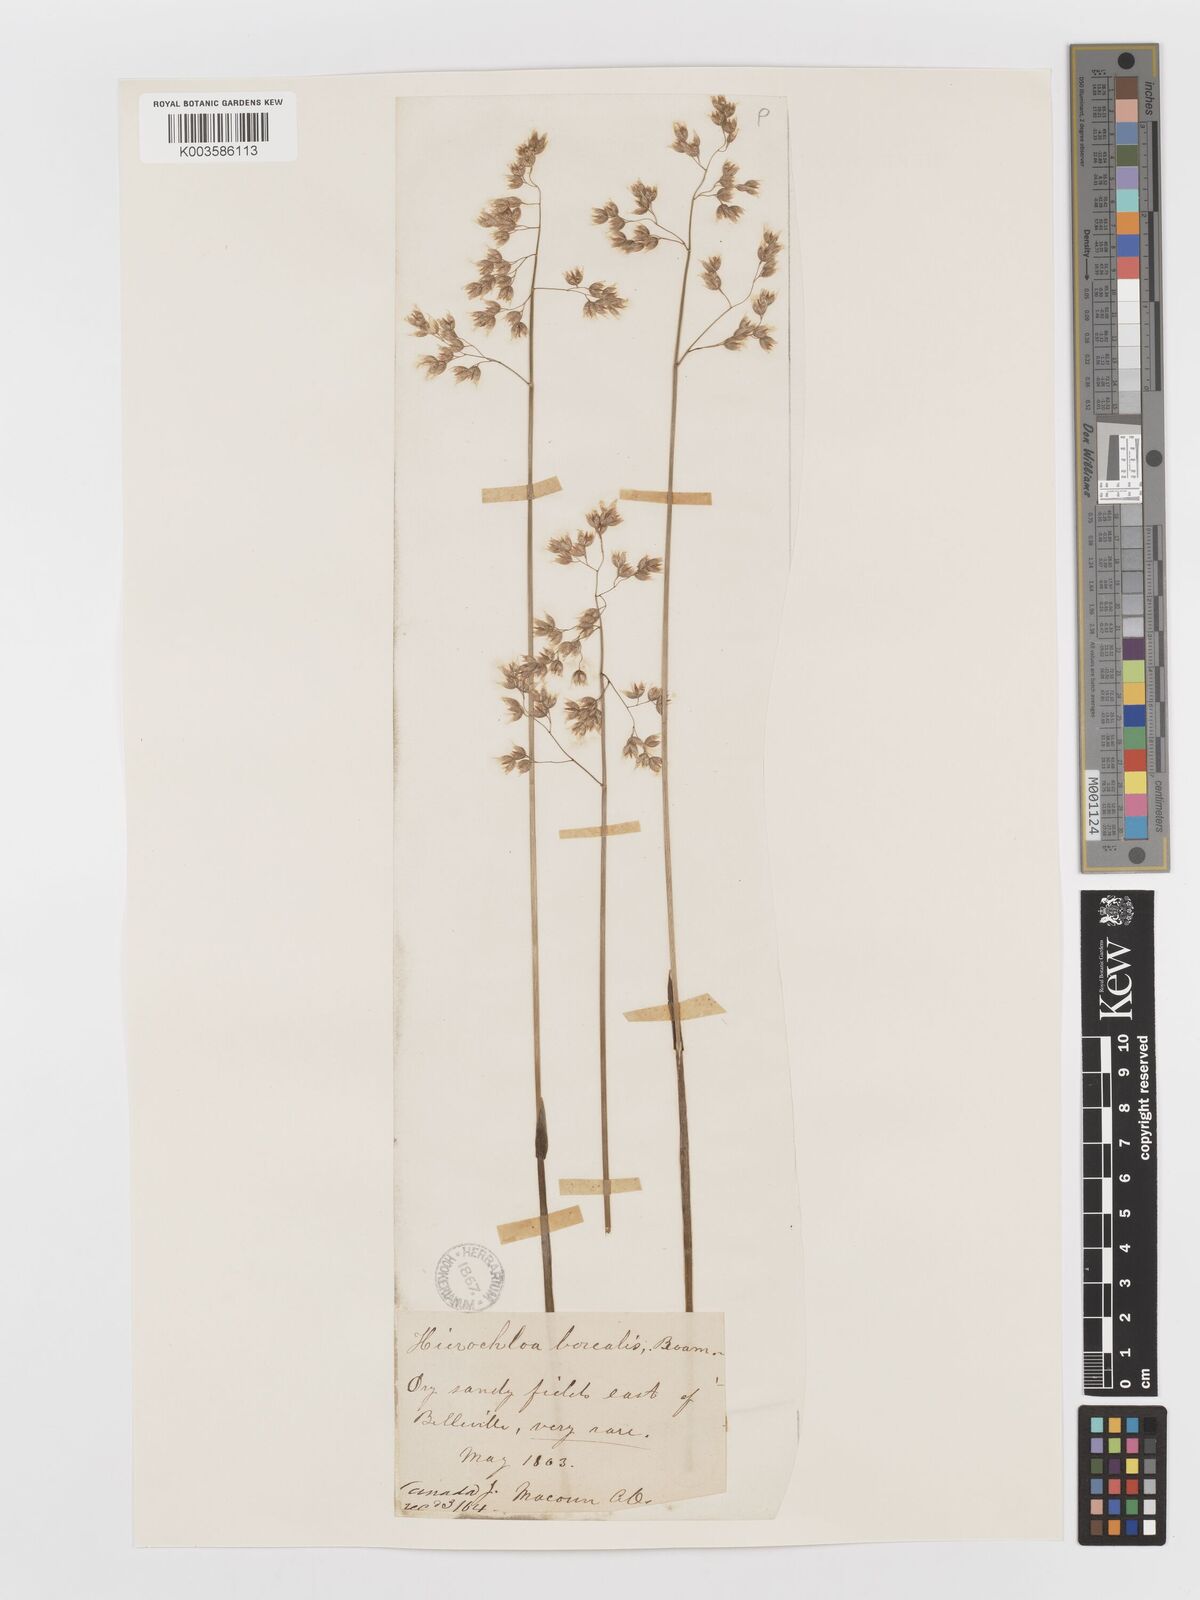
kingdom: Plantae
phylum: Tracheophyta
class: Liliopsida
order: Poales
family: Poaceae
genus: Anthoxanthum
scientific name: Anthoxanthum nitens
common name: Holy grass
